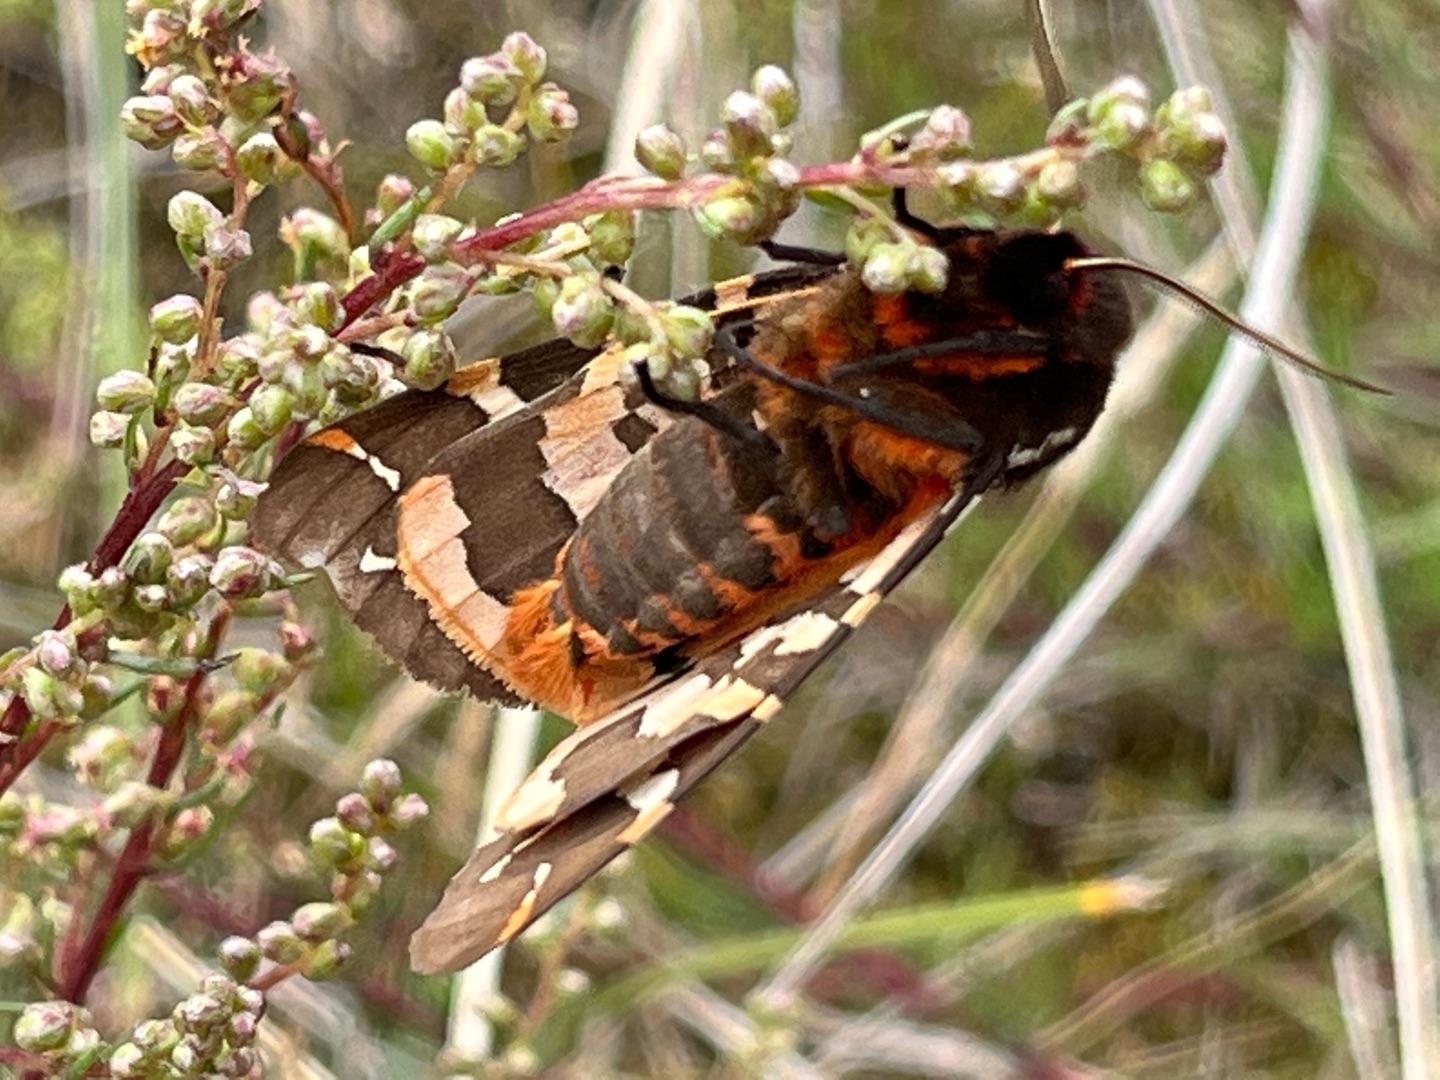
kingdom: Animalia
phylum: Arthropoda
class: Insecta
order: Lepidoptera
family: Erebidae
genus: Arctia
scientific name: Arctia caja
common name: Brun bjørn
